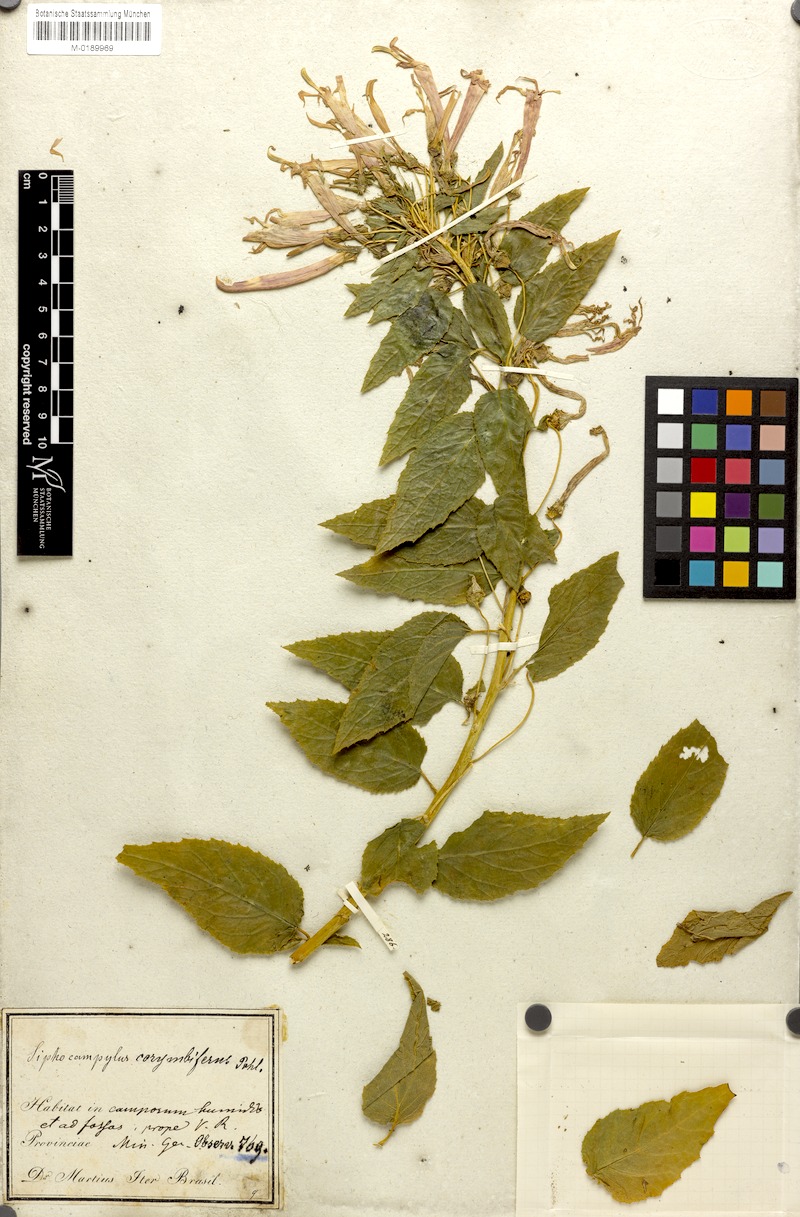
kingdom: Plantae
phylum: Tracheophyta
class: Magnoliopsida
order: Asterales
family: Campanulaceae
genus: Siphocampylus
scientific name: Siphocampylus corymbifer
